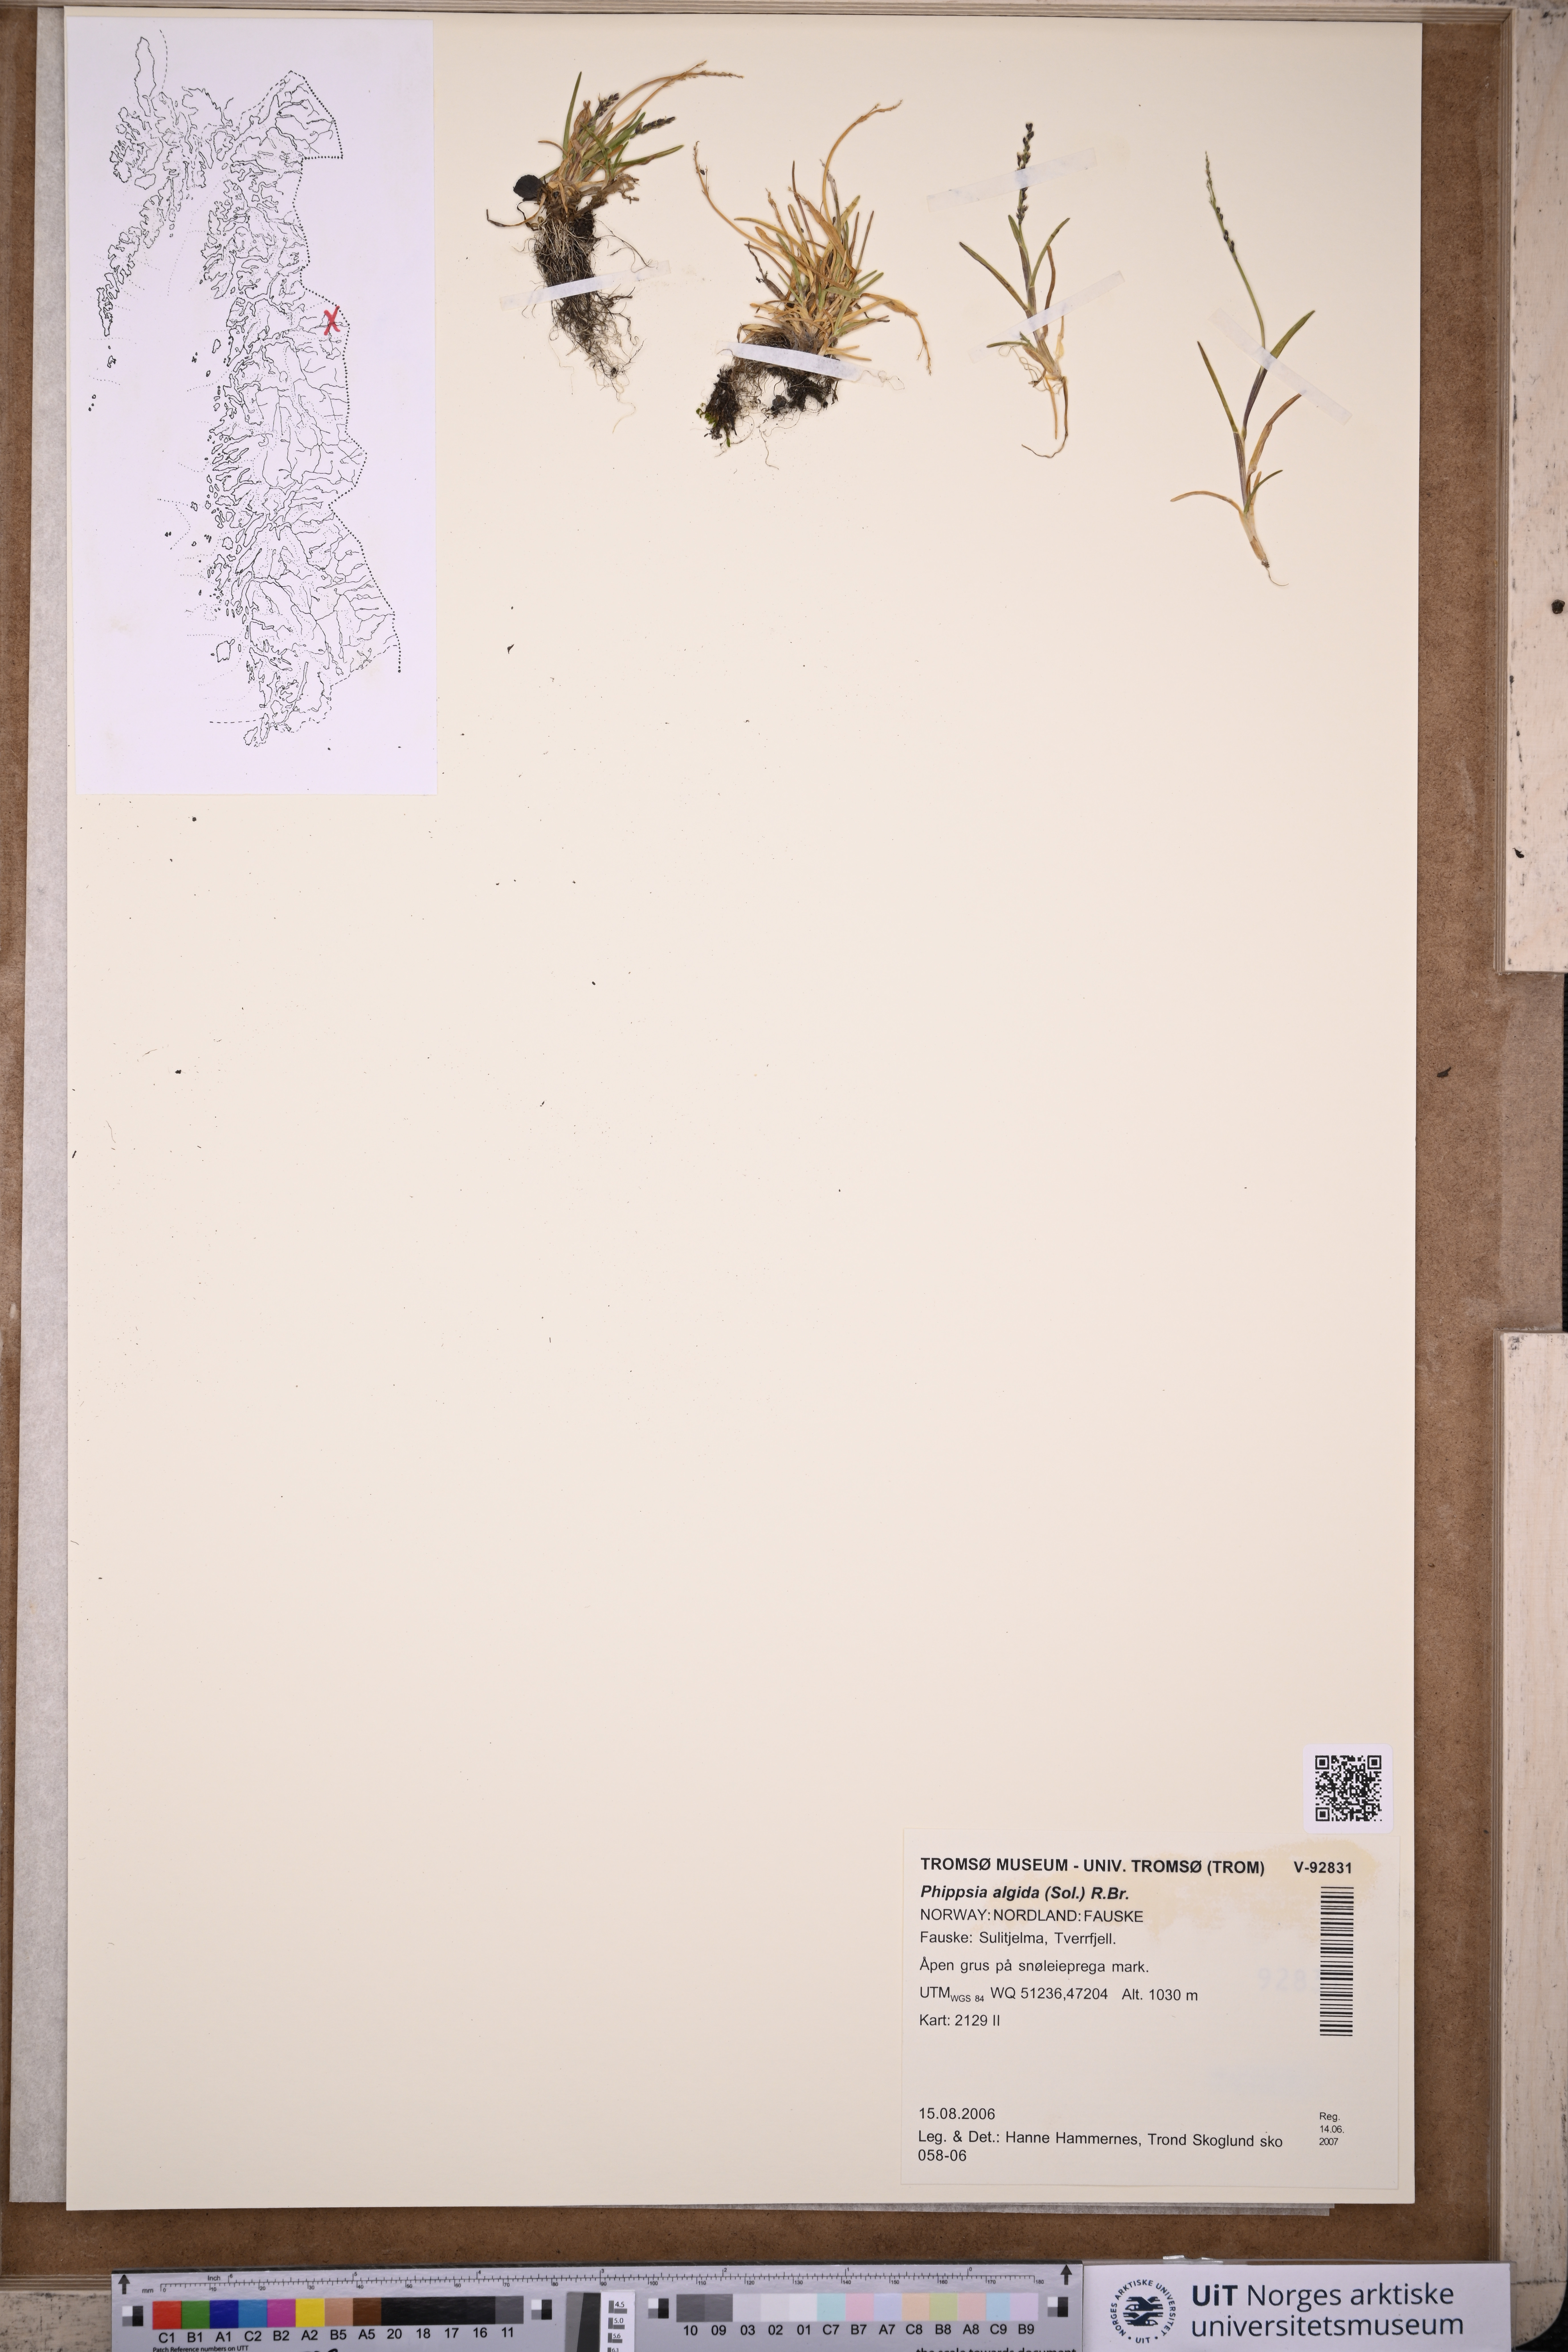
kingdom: Plantae
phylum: Tracheophyta
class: Liliopsida
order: Poales
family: Poaceae
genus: Phippsia
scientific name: Phippsia algida
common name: Ice grass
